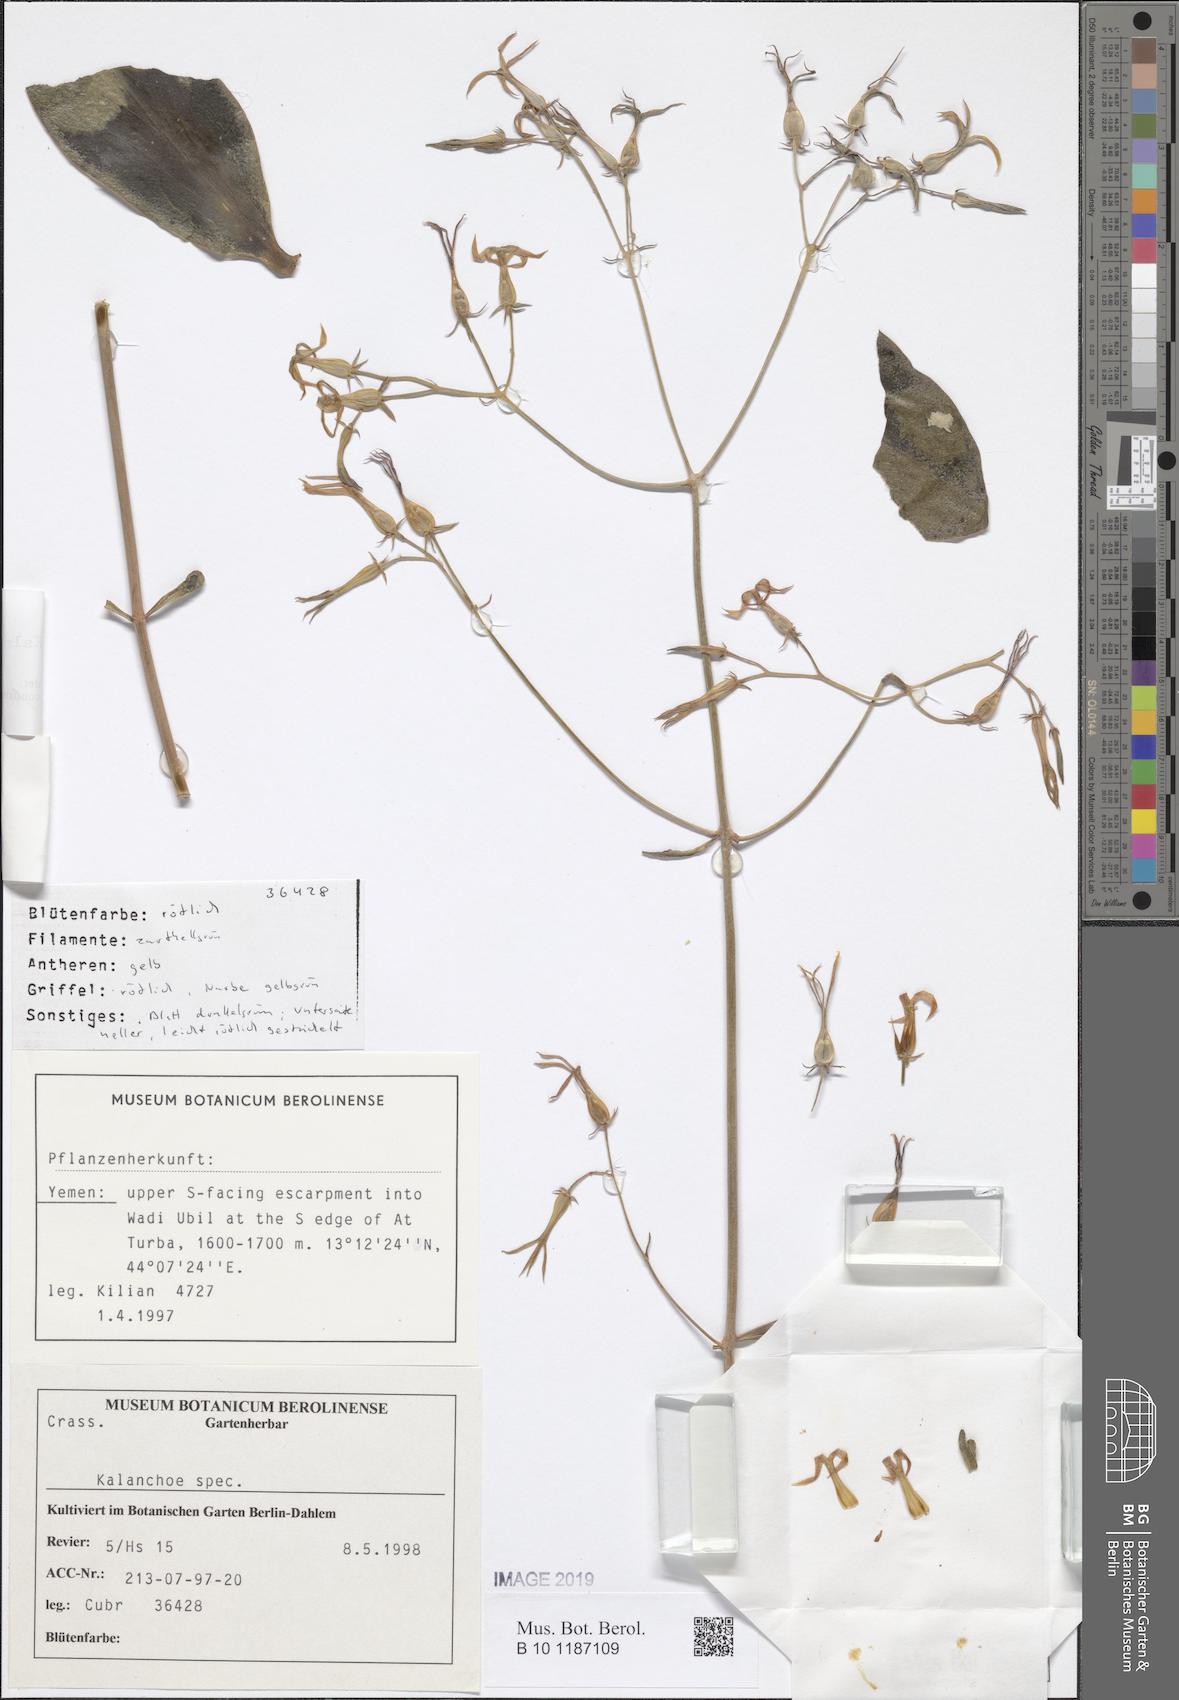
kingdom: Plantae
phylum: Tracheophyta
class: Magnoliopsida
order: Saxifragales
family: Crassulaceae
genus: Kalanchoe
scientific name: Kalanchoe alternans
